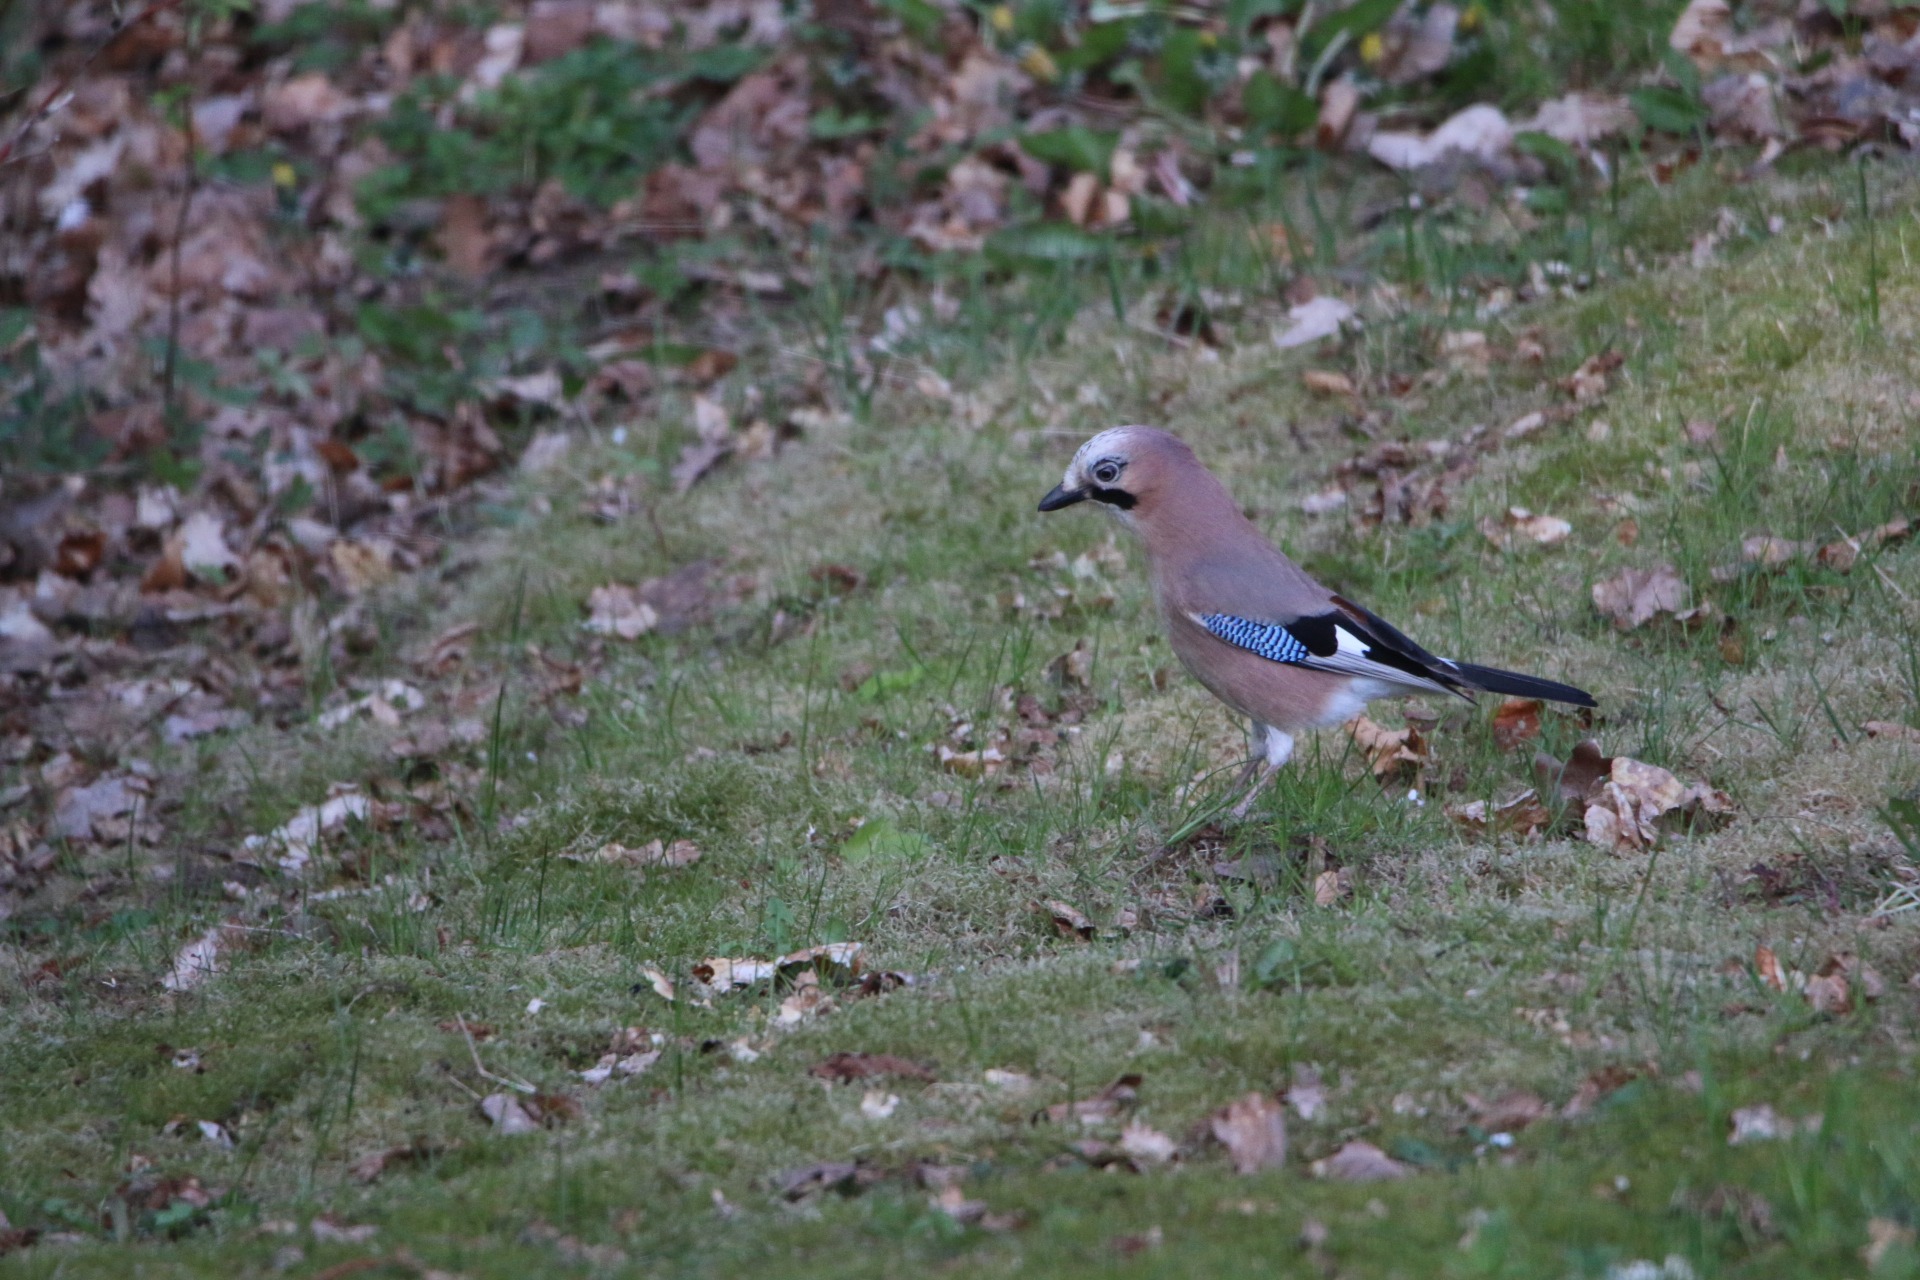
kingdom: Animalia
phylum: Chordata
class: Aves
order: Passeriformes
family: Corvidae
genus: Garrulus
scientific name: Garrulus glandarius
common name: Skovskade
